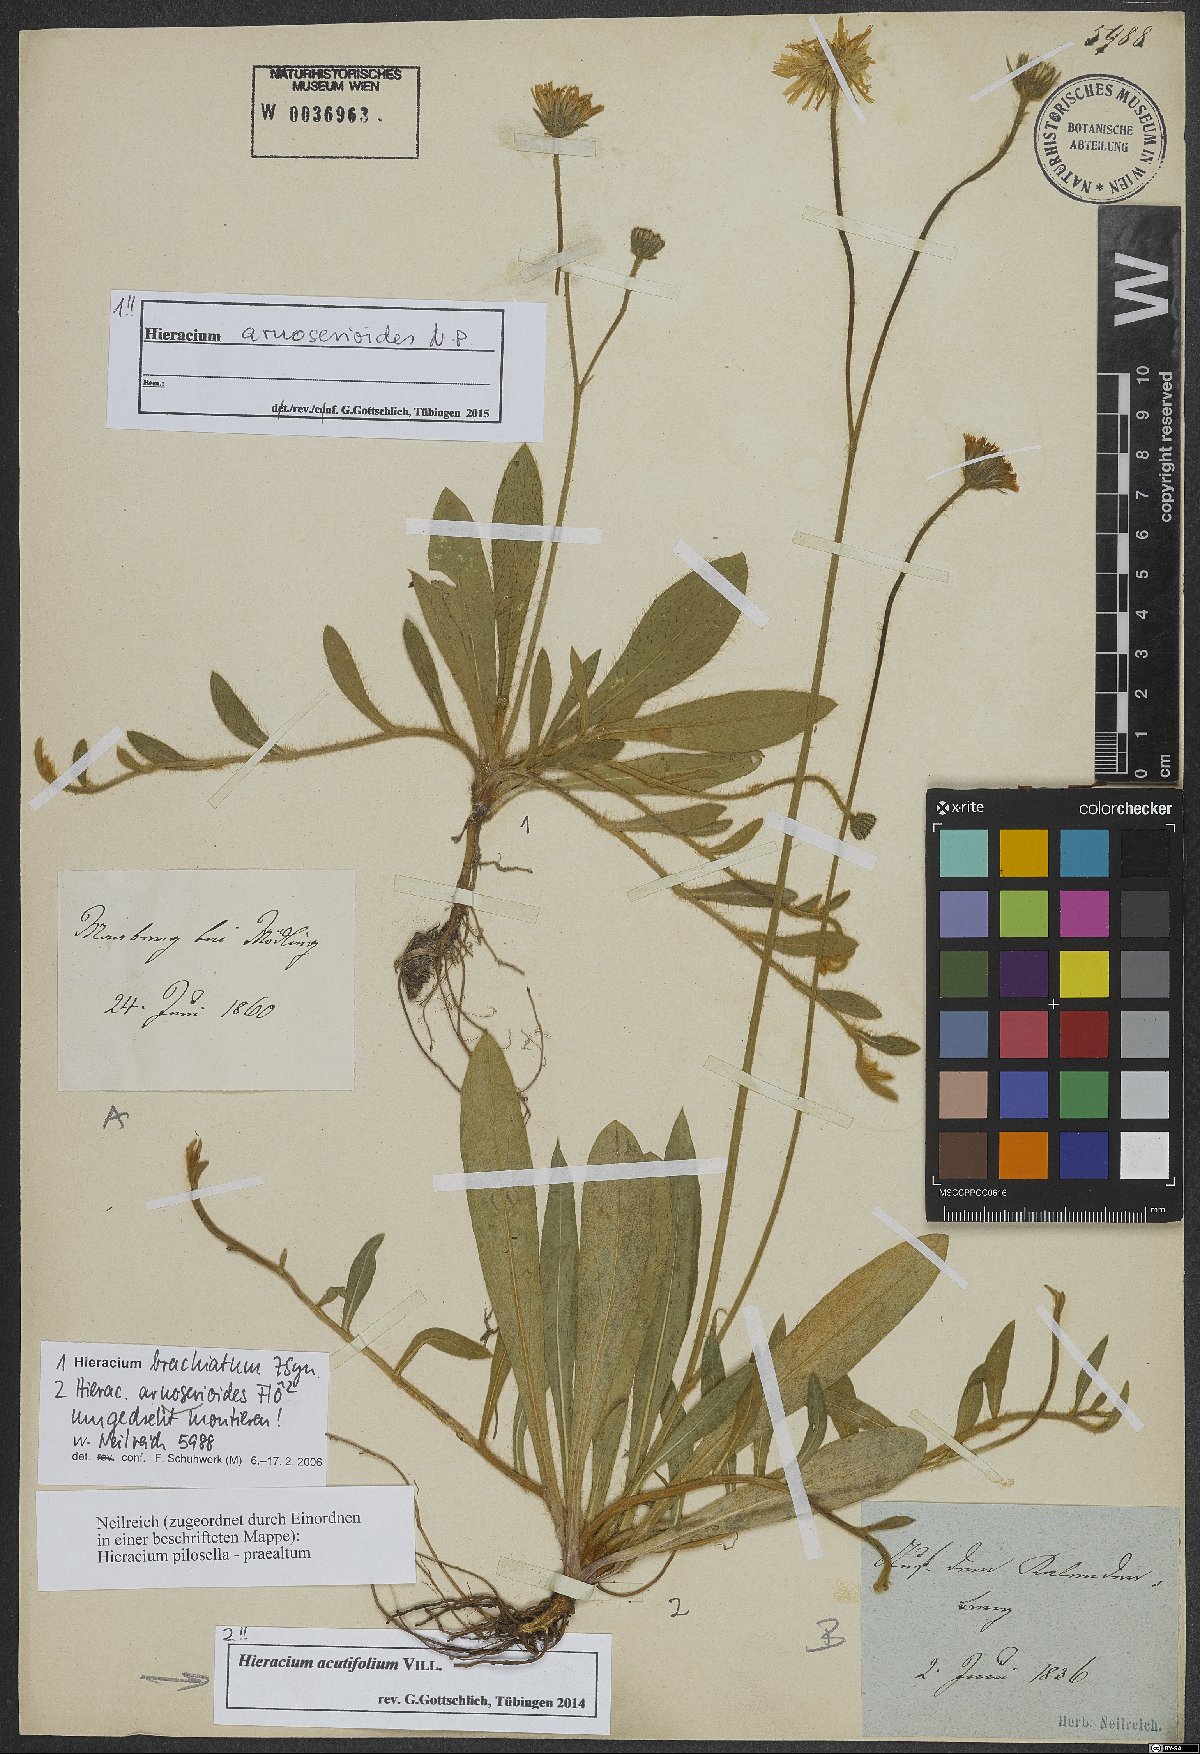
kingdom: Plantae
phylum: Tracheophyta
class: Magnoliopsida
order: Asterales
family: Asteraceae
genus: Pilosella
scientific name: Pilosella arnoserioides
